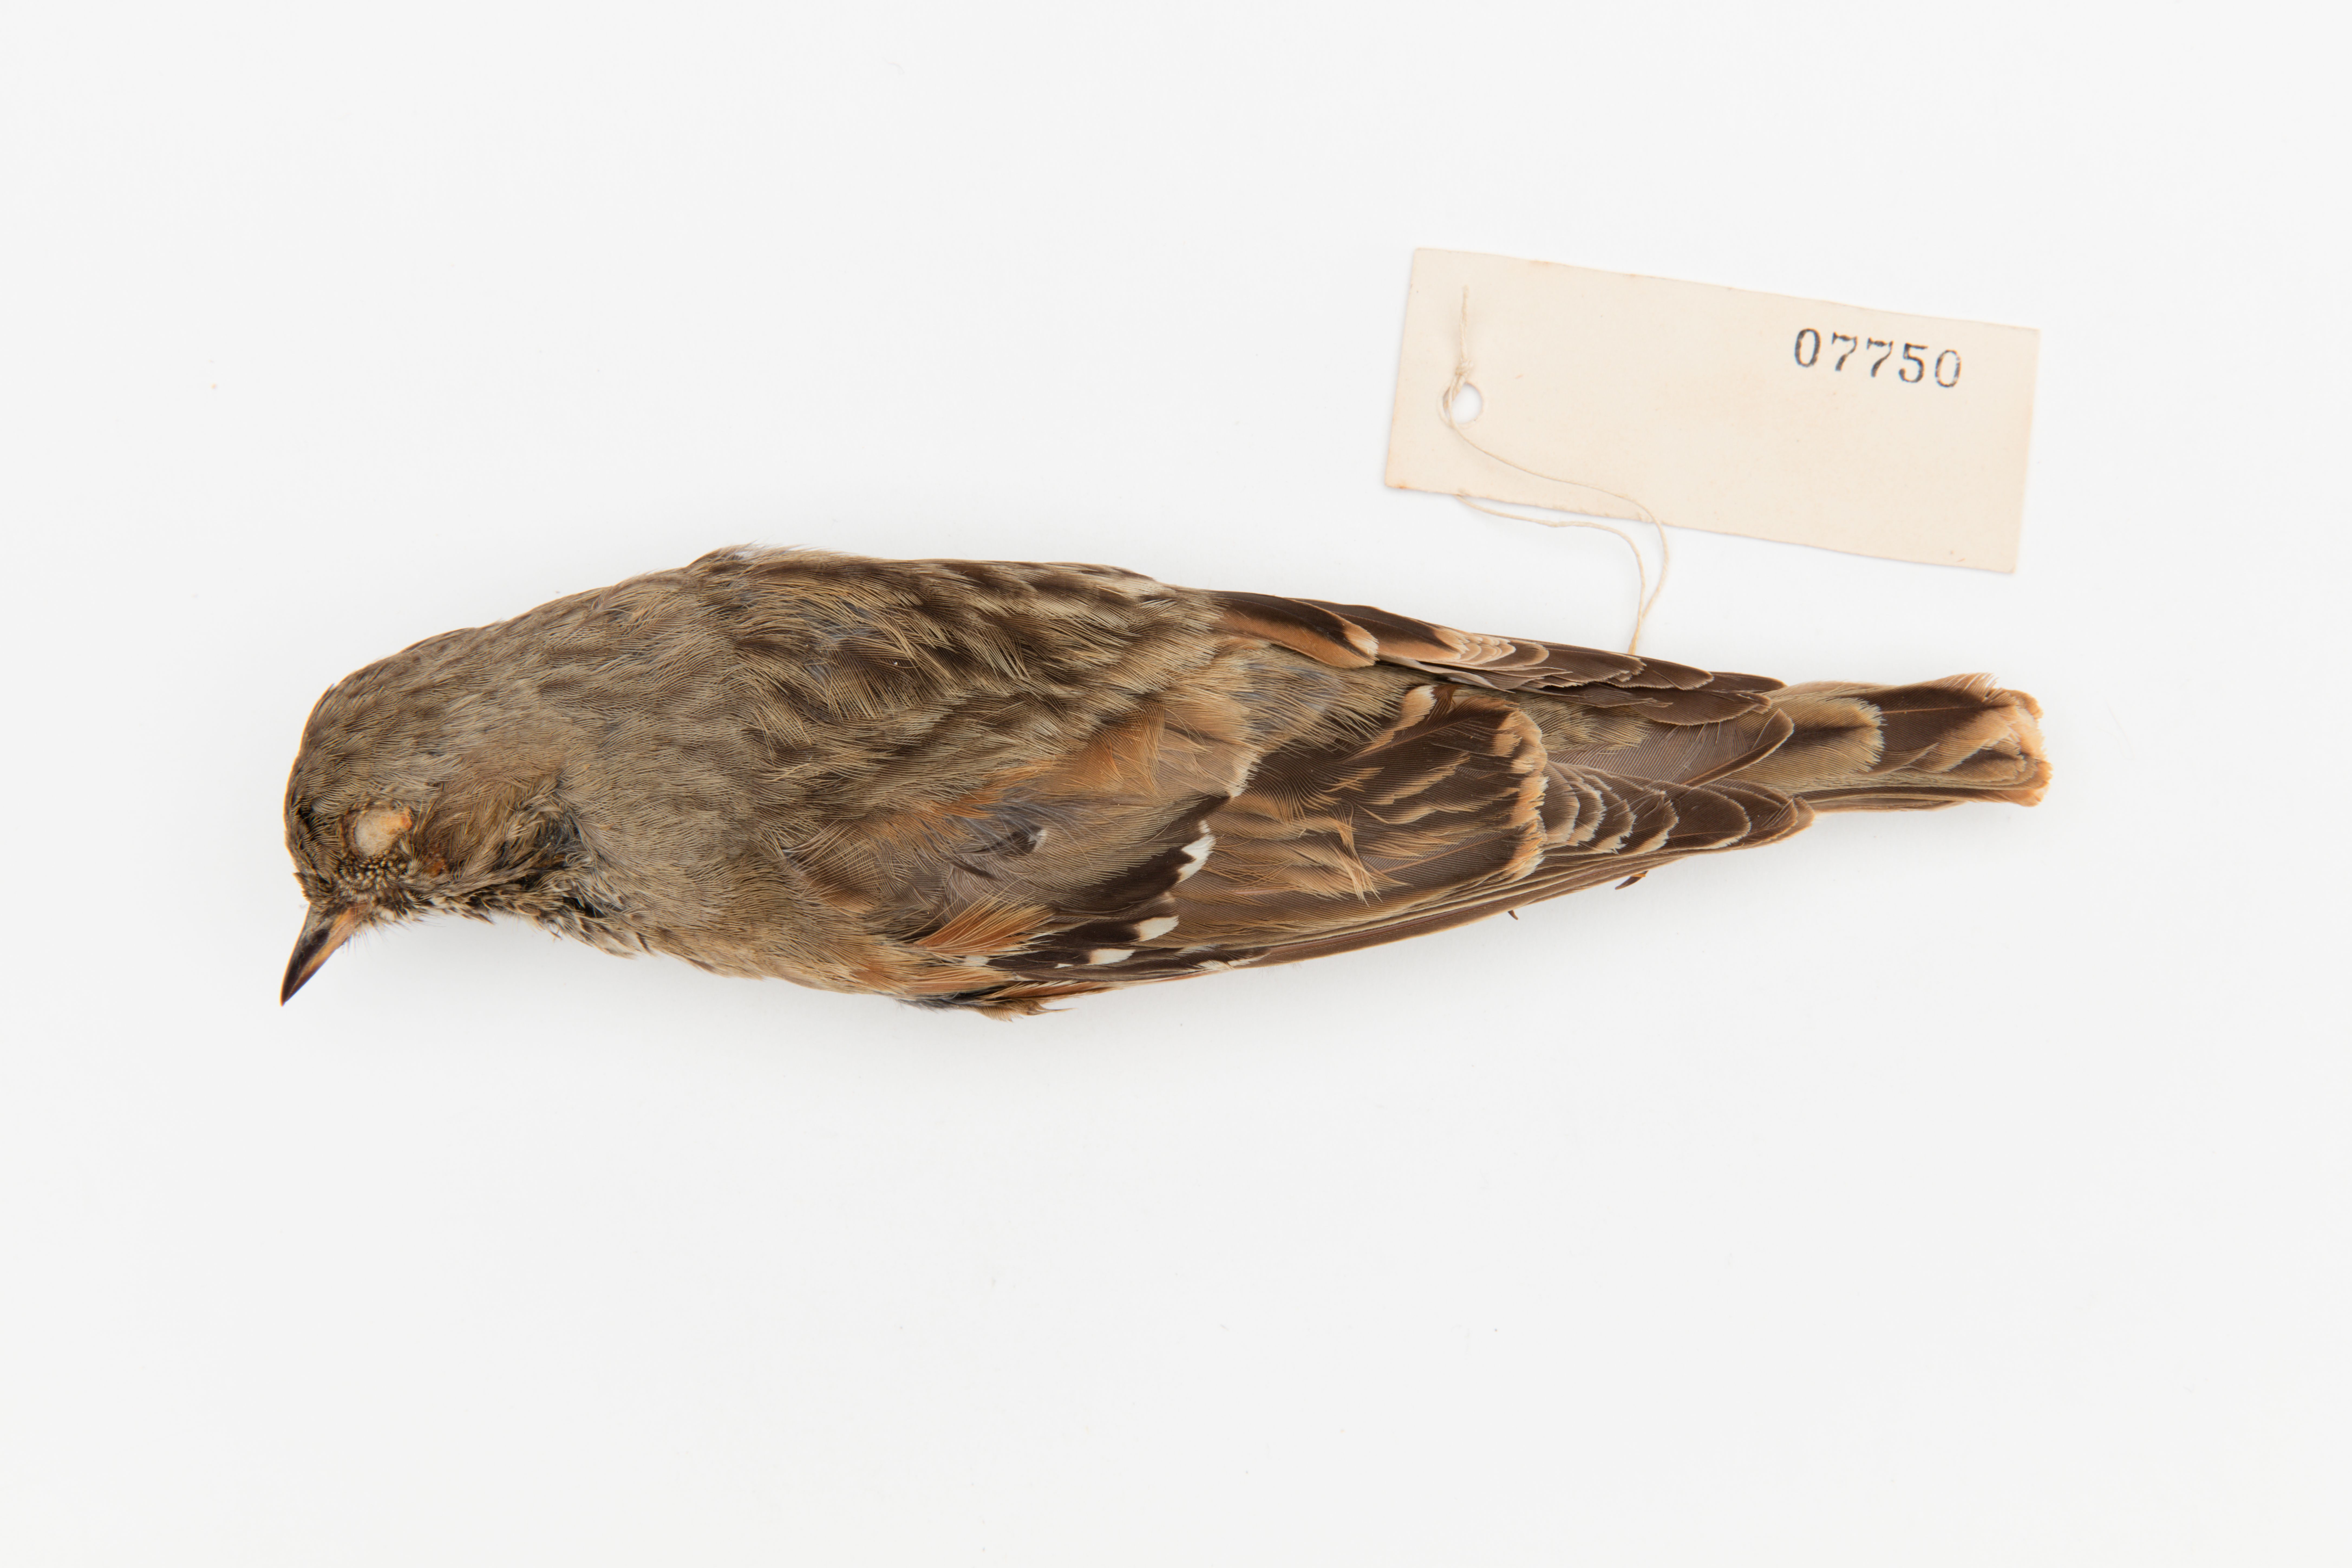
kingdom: Animalia
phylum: Chordata
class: Aves
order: Passeriformes
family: Prunellidae
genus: Prunella
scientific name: Prunella collaris
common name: Alpine accentor
